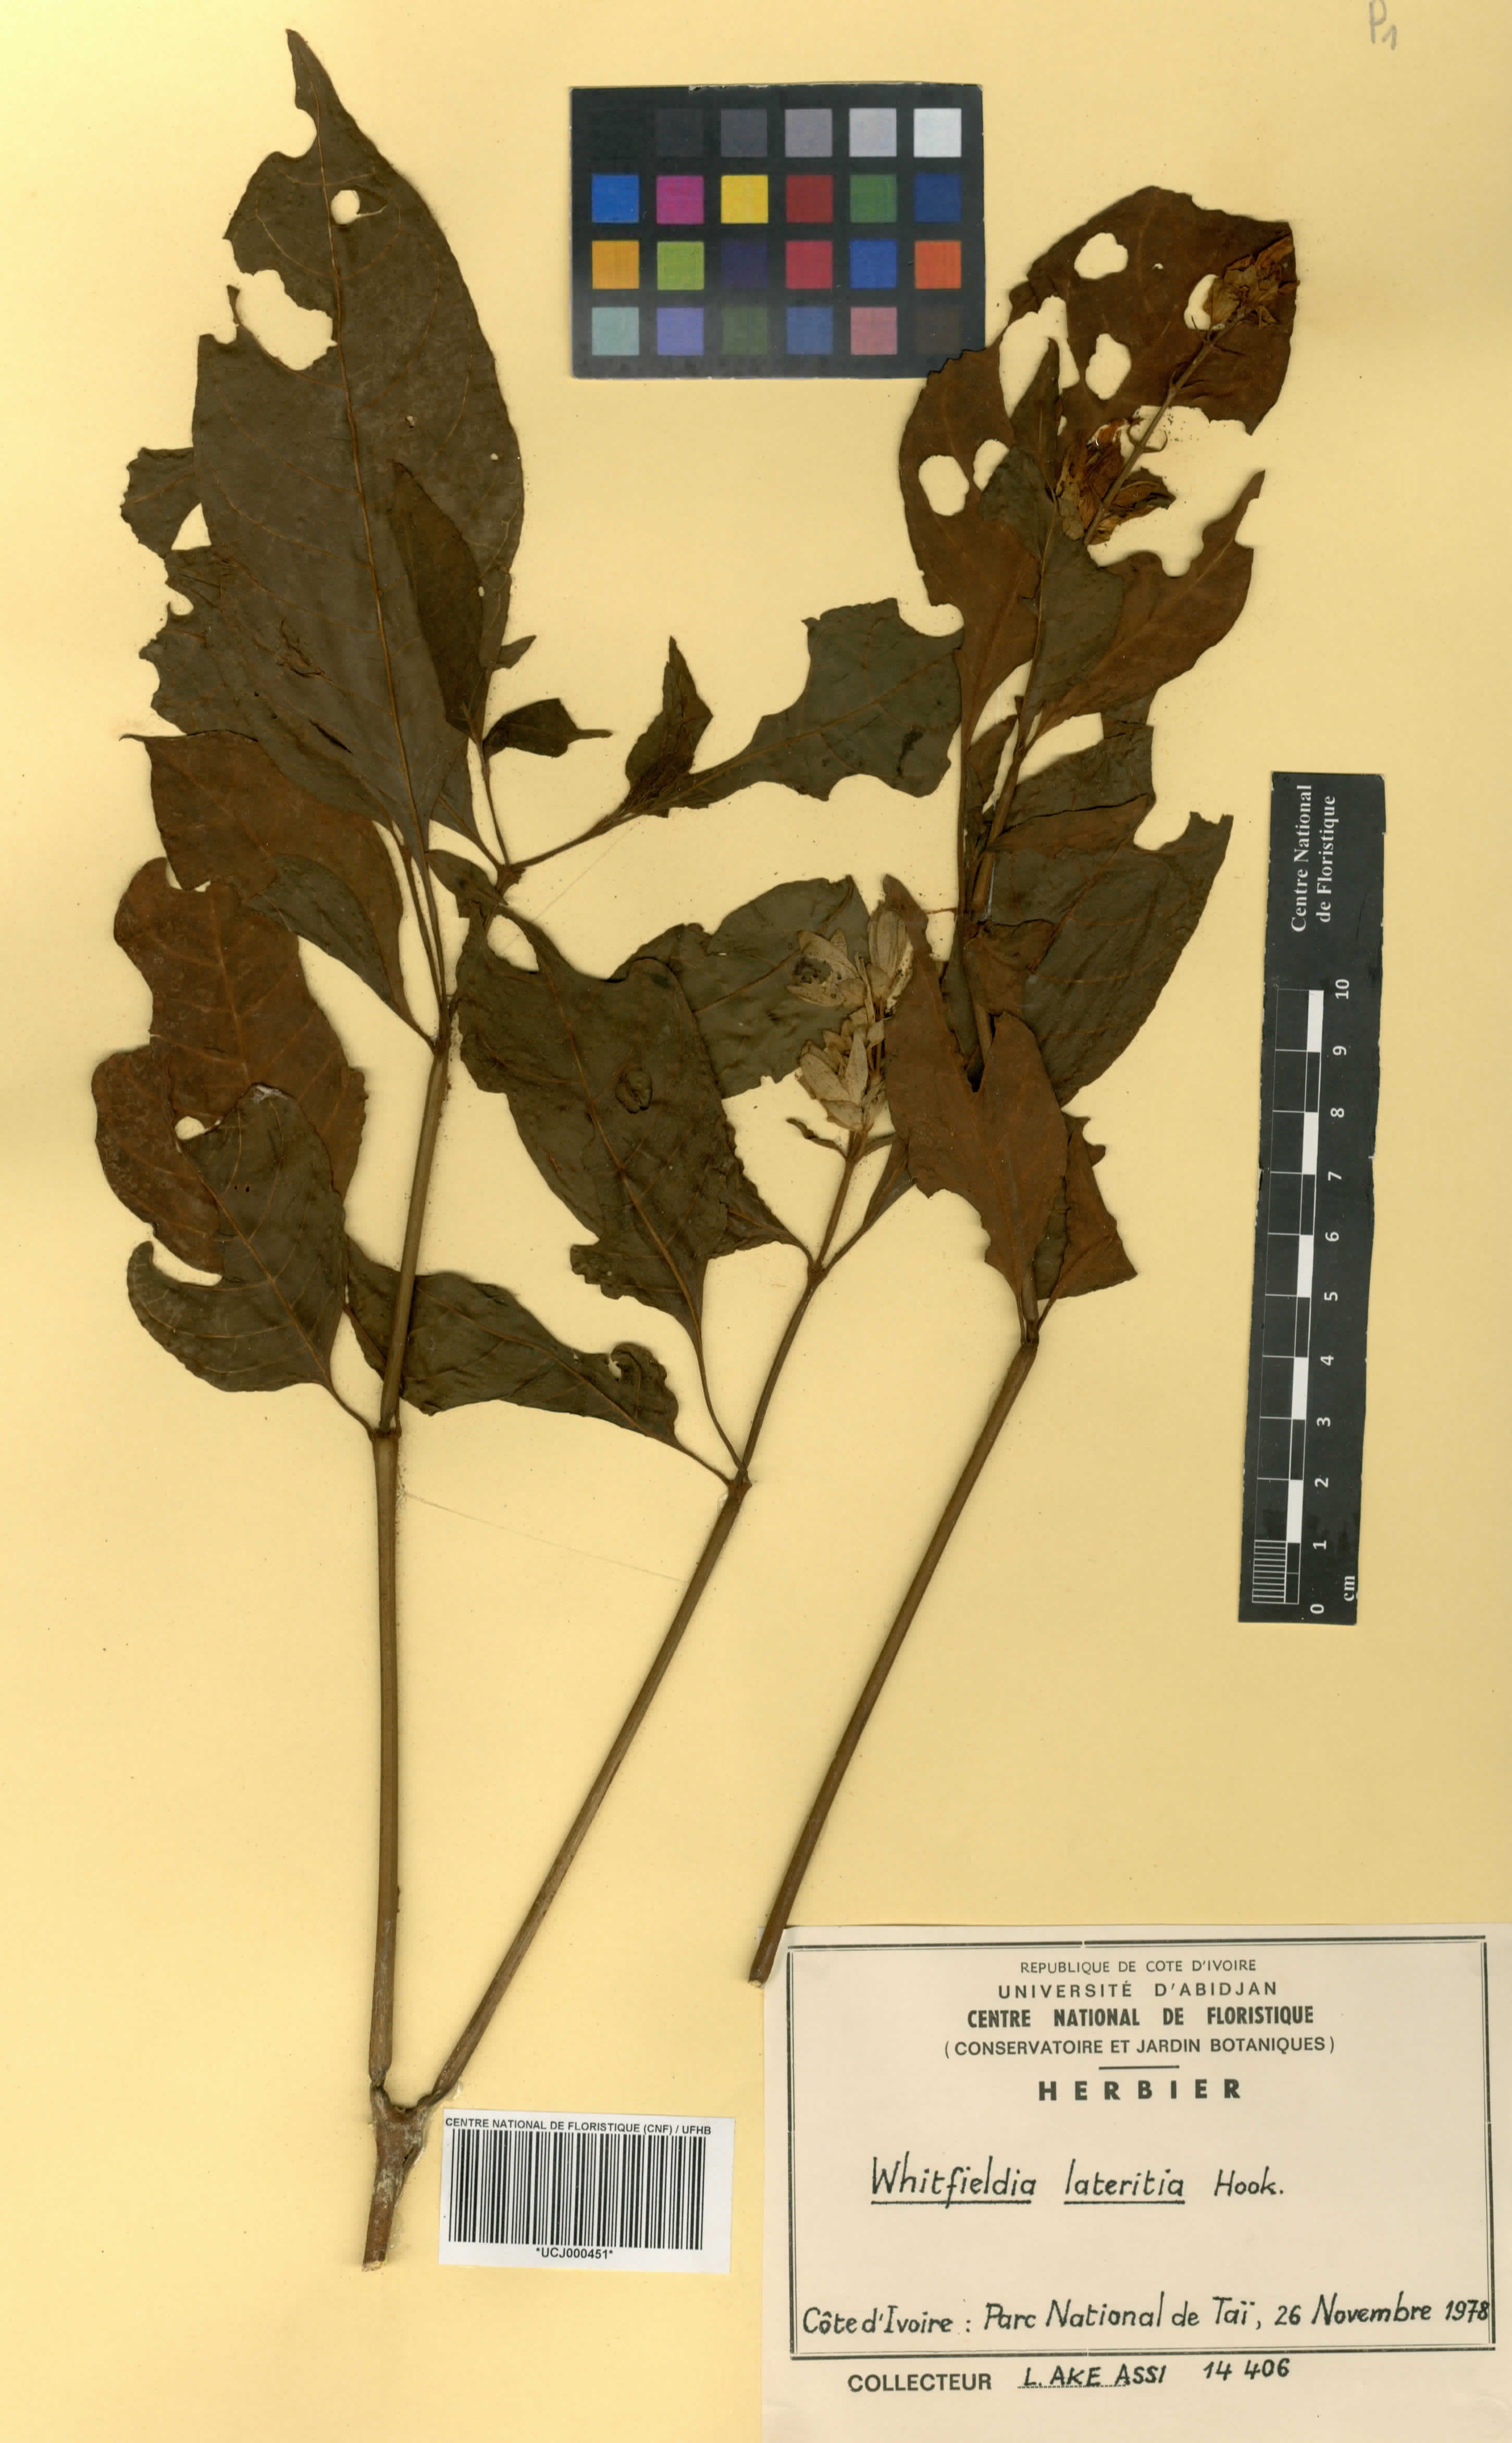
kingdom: Plantae
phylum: Tracheophyta
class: Magnoliopsida
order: Lamiales
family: Acanthaceae
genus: Whitfieldia
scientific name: Whitfieldia lateritia
